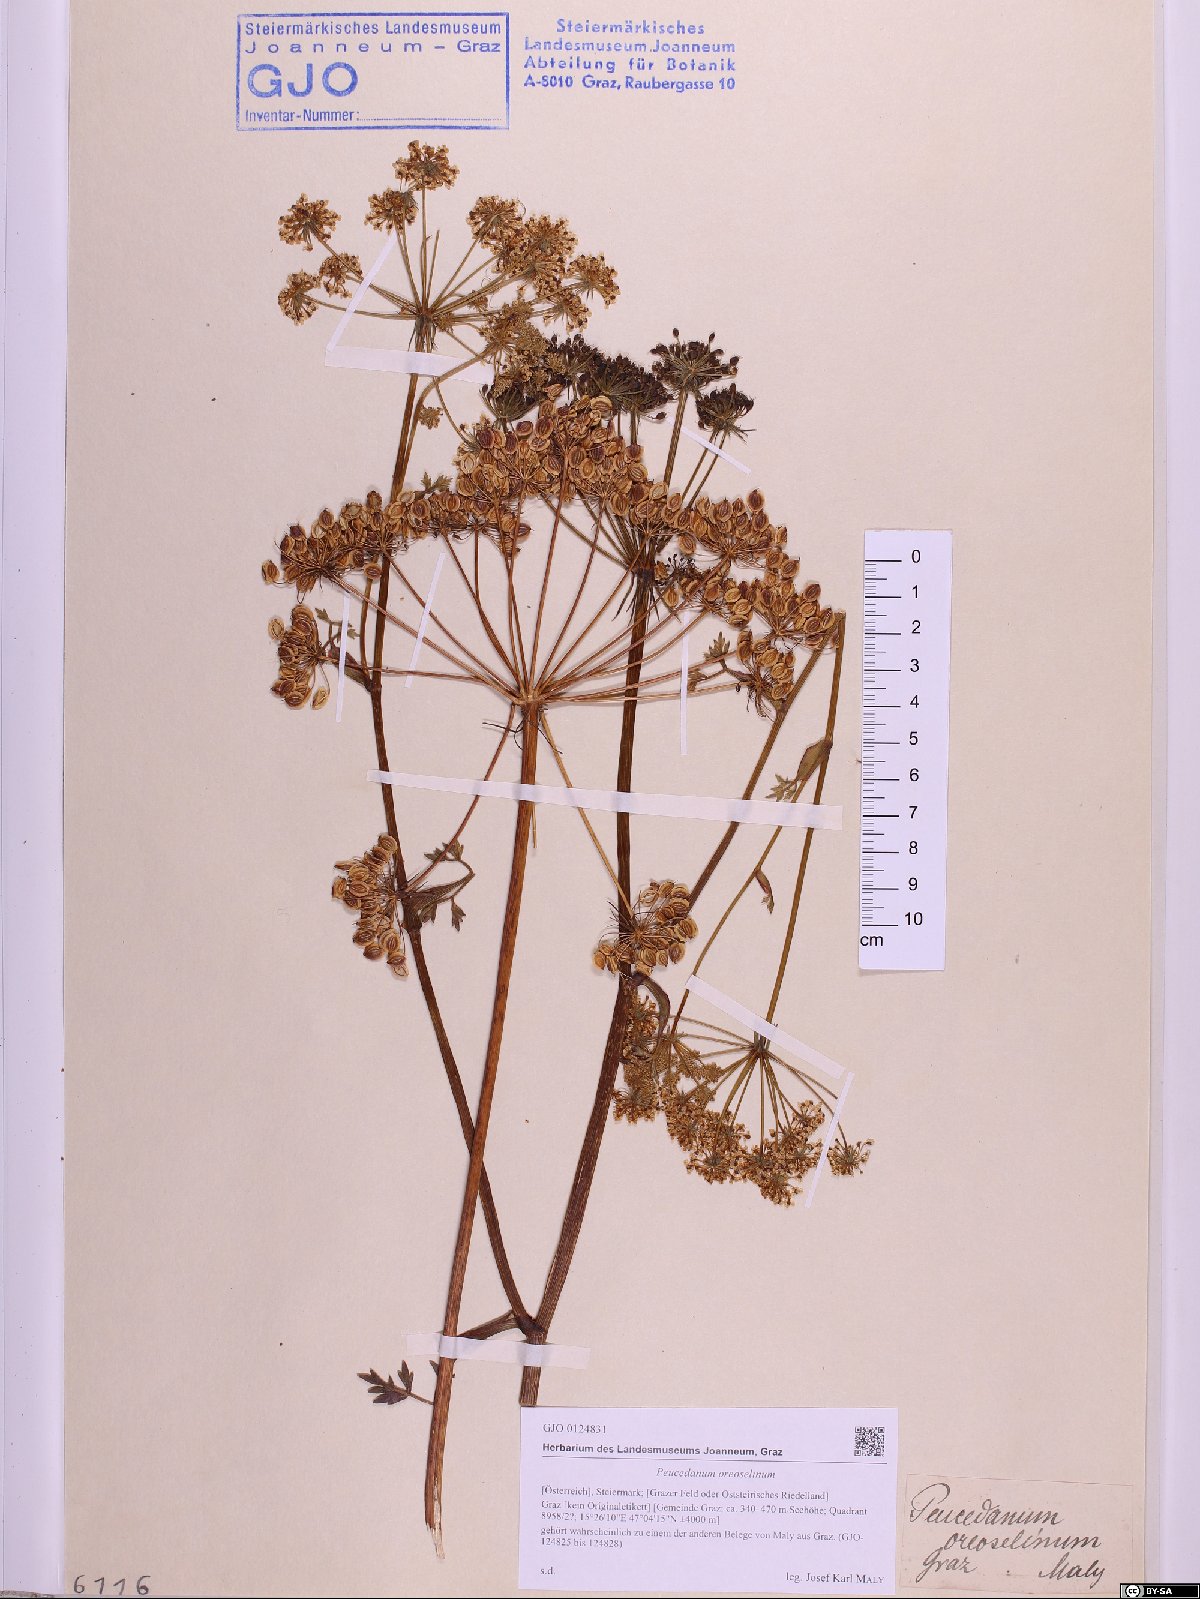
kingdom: Plantae
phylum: Tracheophyta
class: Magnoliopsida
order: Apiales
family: Apiaceae
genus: Oreoselinum
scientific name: Oreoselinum nigrum
